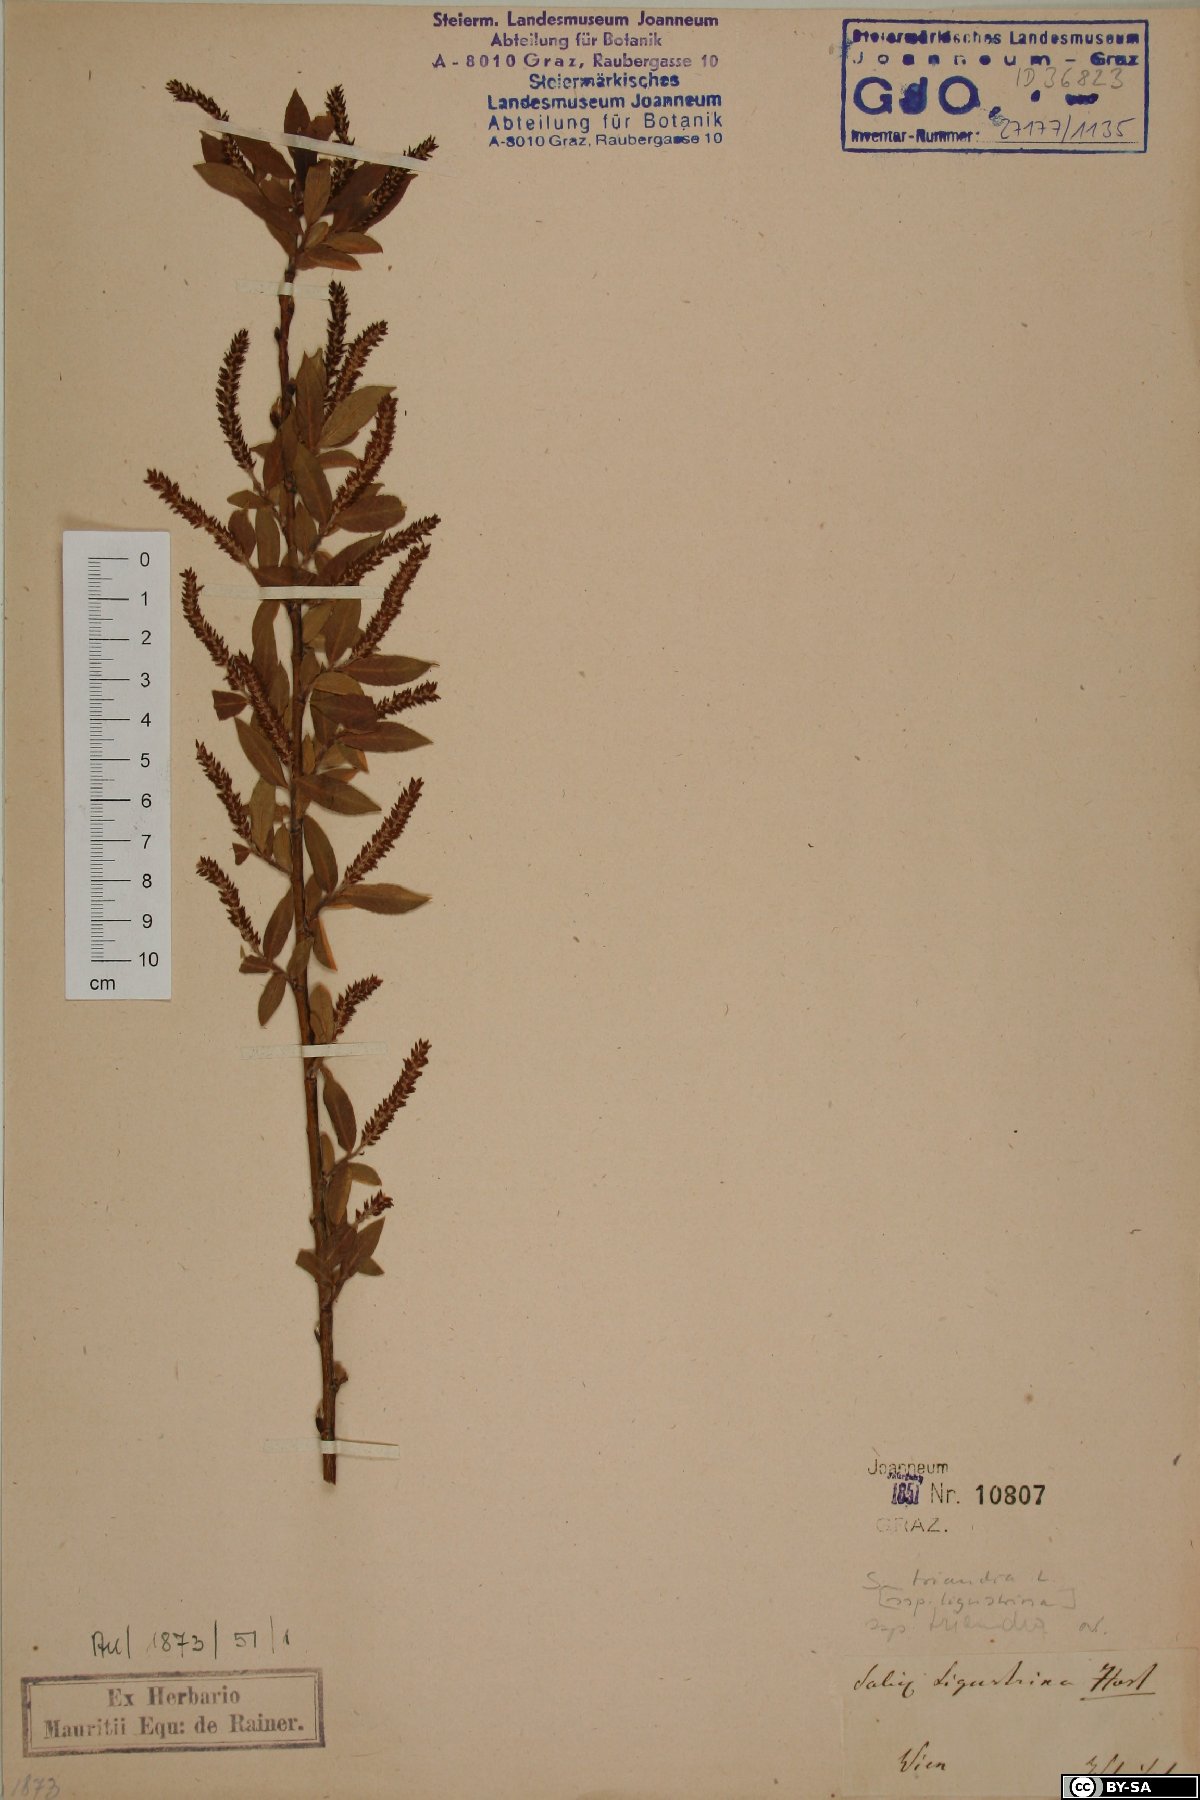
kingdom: Plantae
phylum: Tracheophyta
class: Magnoliopsida
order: Malpighiales
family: Salicaceae
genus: Salix
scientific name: Salix triandra
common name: Almond willow
